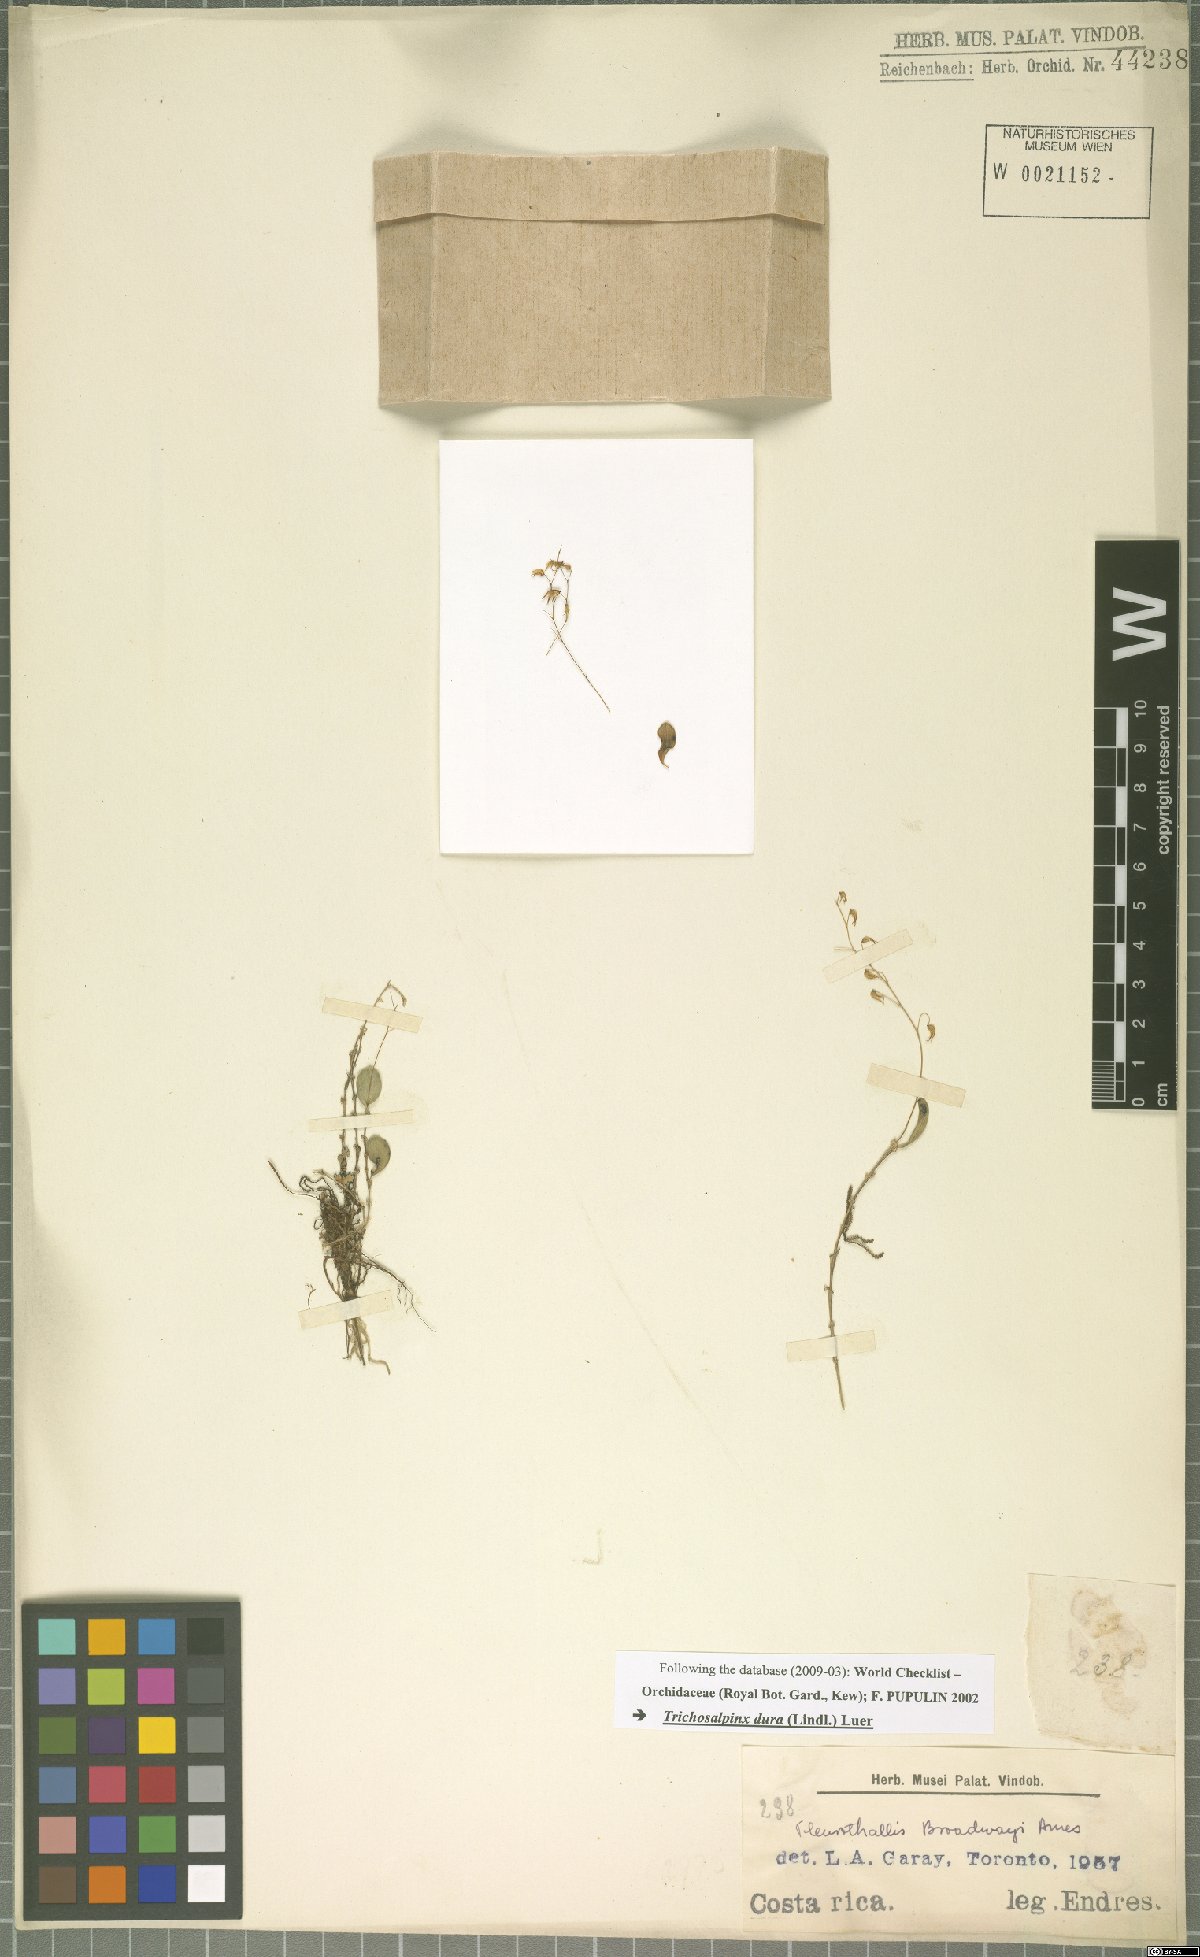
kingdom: Plantae
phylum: Tracheophyta
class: Liliopsida
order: Asparagales
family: Orchidaceae
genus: Trichosalpinx
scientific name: Trichosalpinx dura
